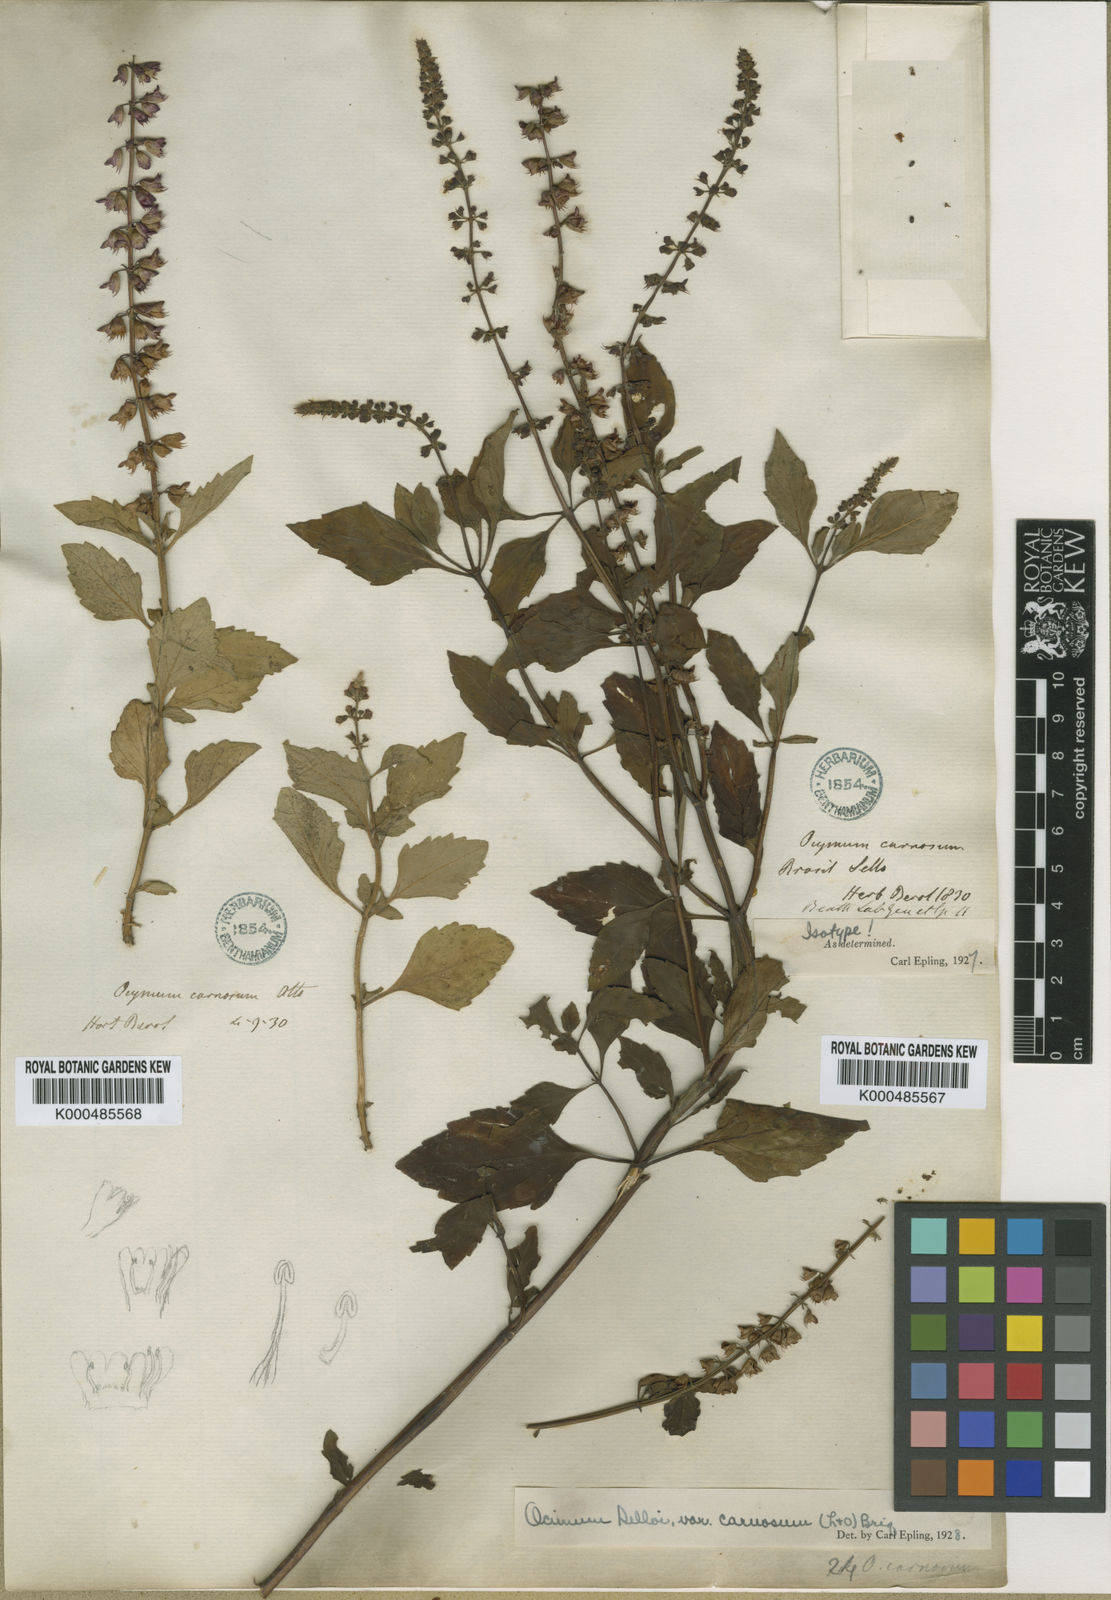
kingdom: Plantae
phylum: Tracheophyta
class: Magnoliopsida
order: Lamiales
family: Lamiaceae
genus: Ocimum
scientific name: Ocimum carnosum
